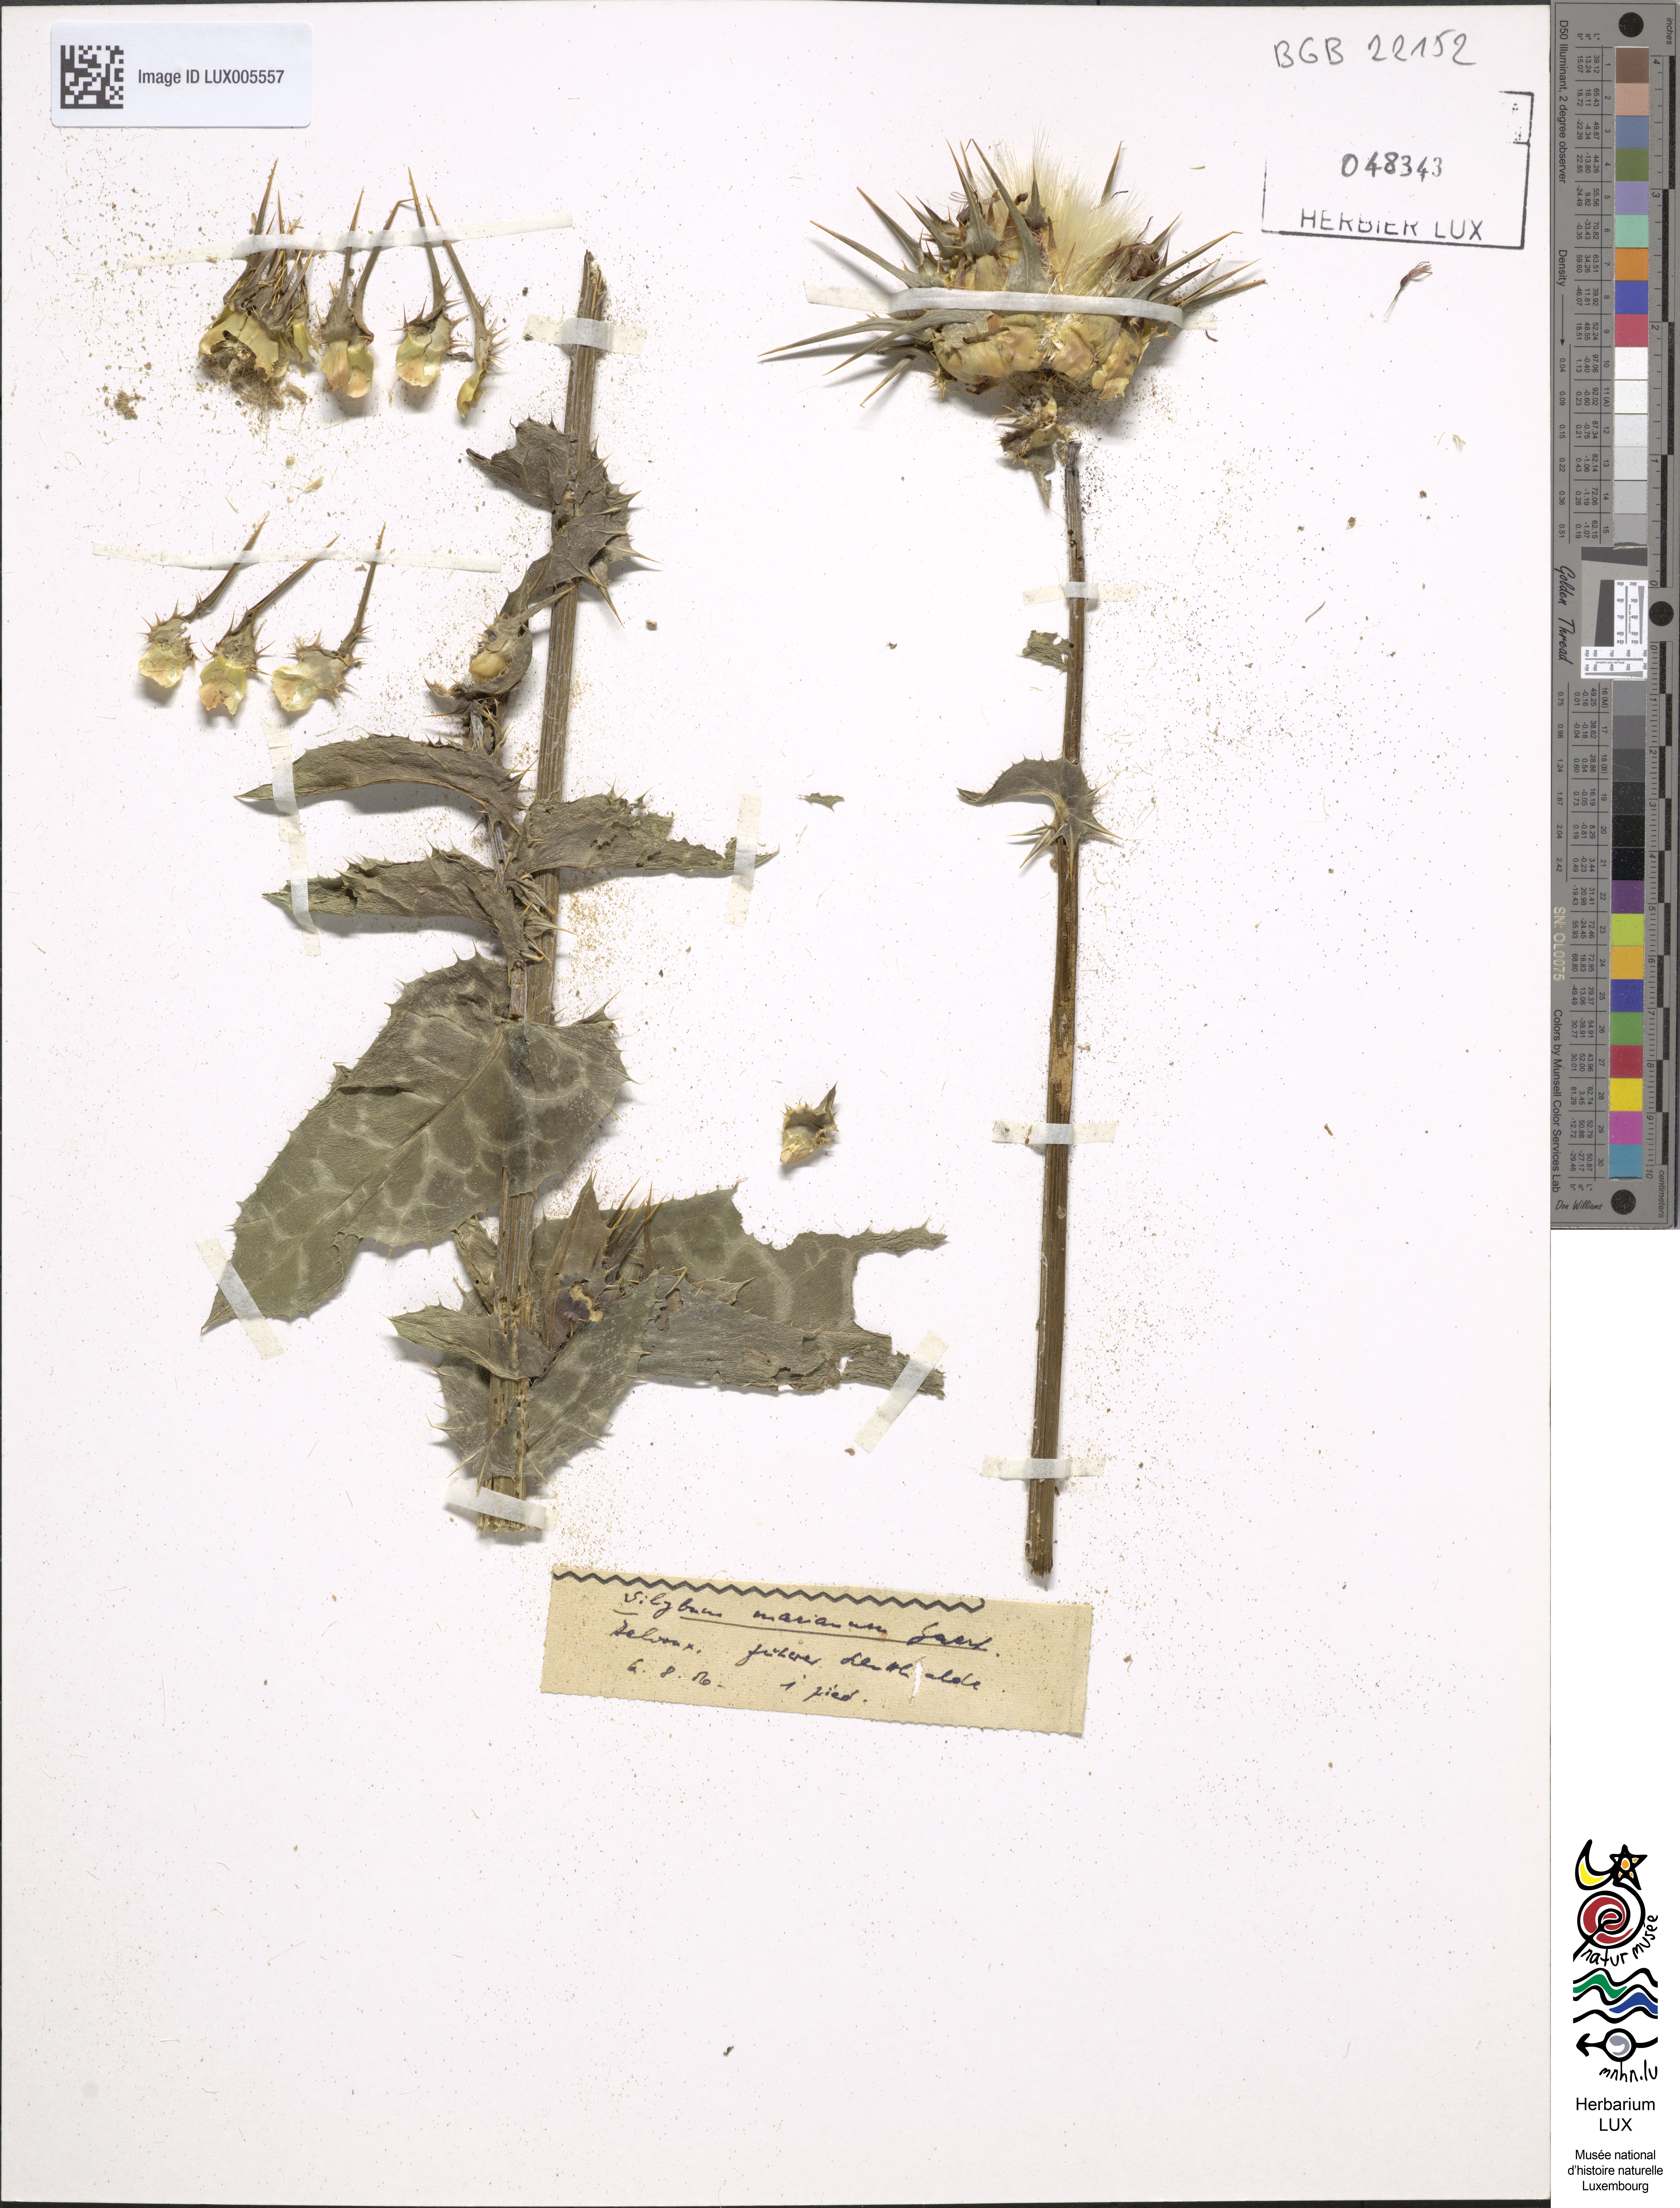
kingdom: Plantae
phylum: Tracheophyta
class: Magnoliopsida
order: Asterales
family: Asteraceae
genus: Silybum
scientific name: Silybum marianum
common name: Milk thistle
